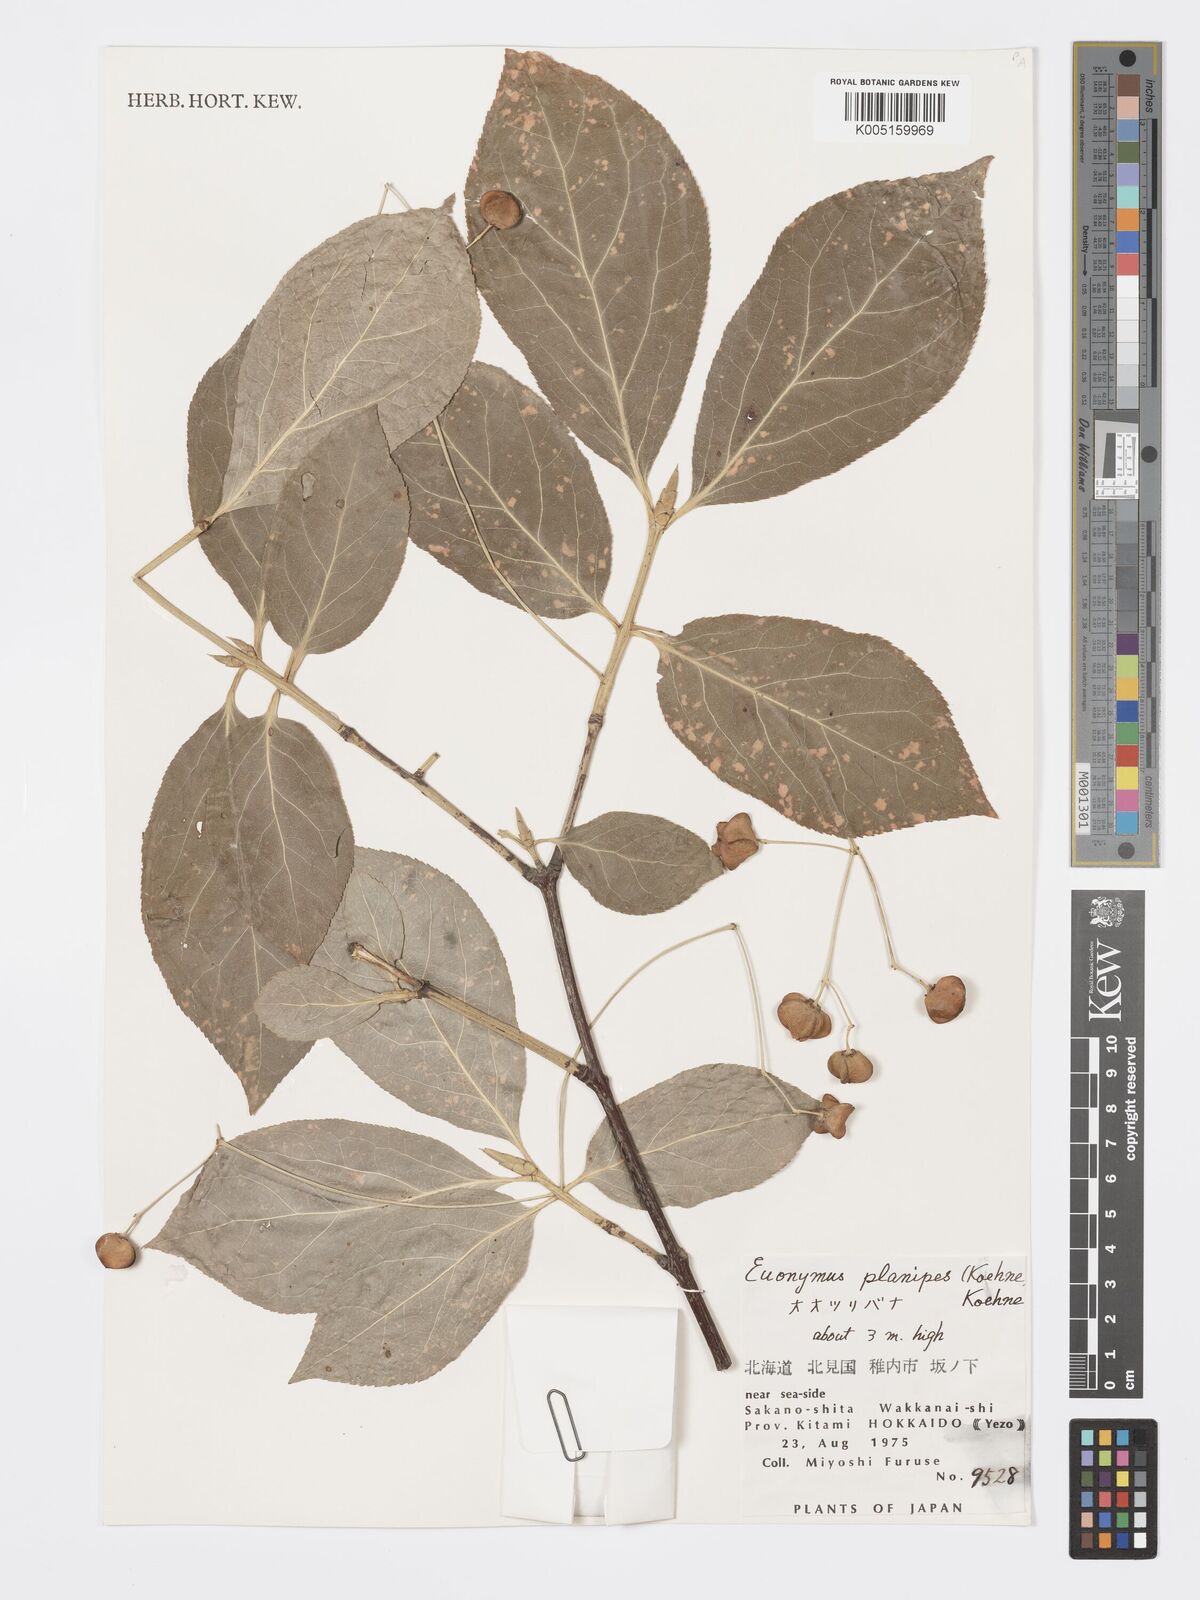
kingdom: Plantae
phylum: Tracheophyta
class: Magnoliopsida
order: Celastrales
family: Celastraceae
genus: Euonymus
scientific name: Euonymus sachalinensis
